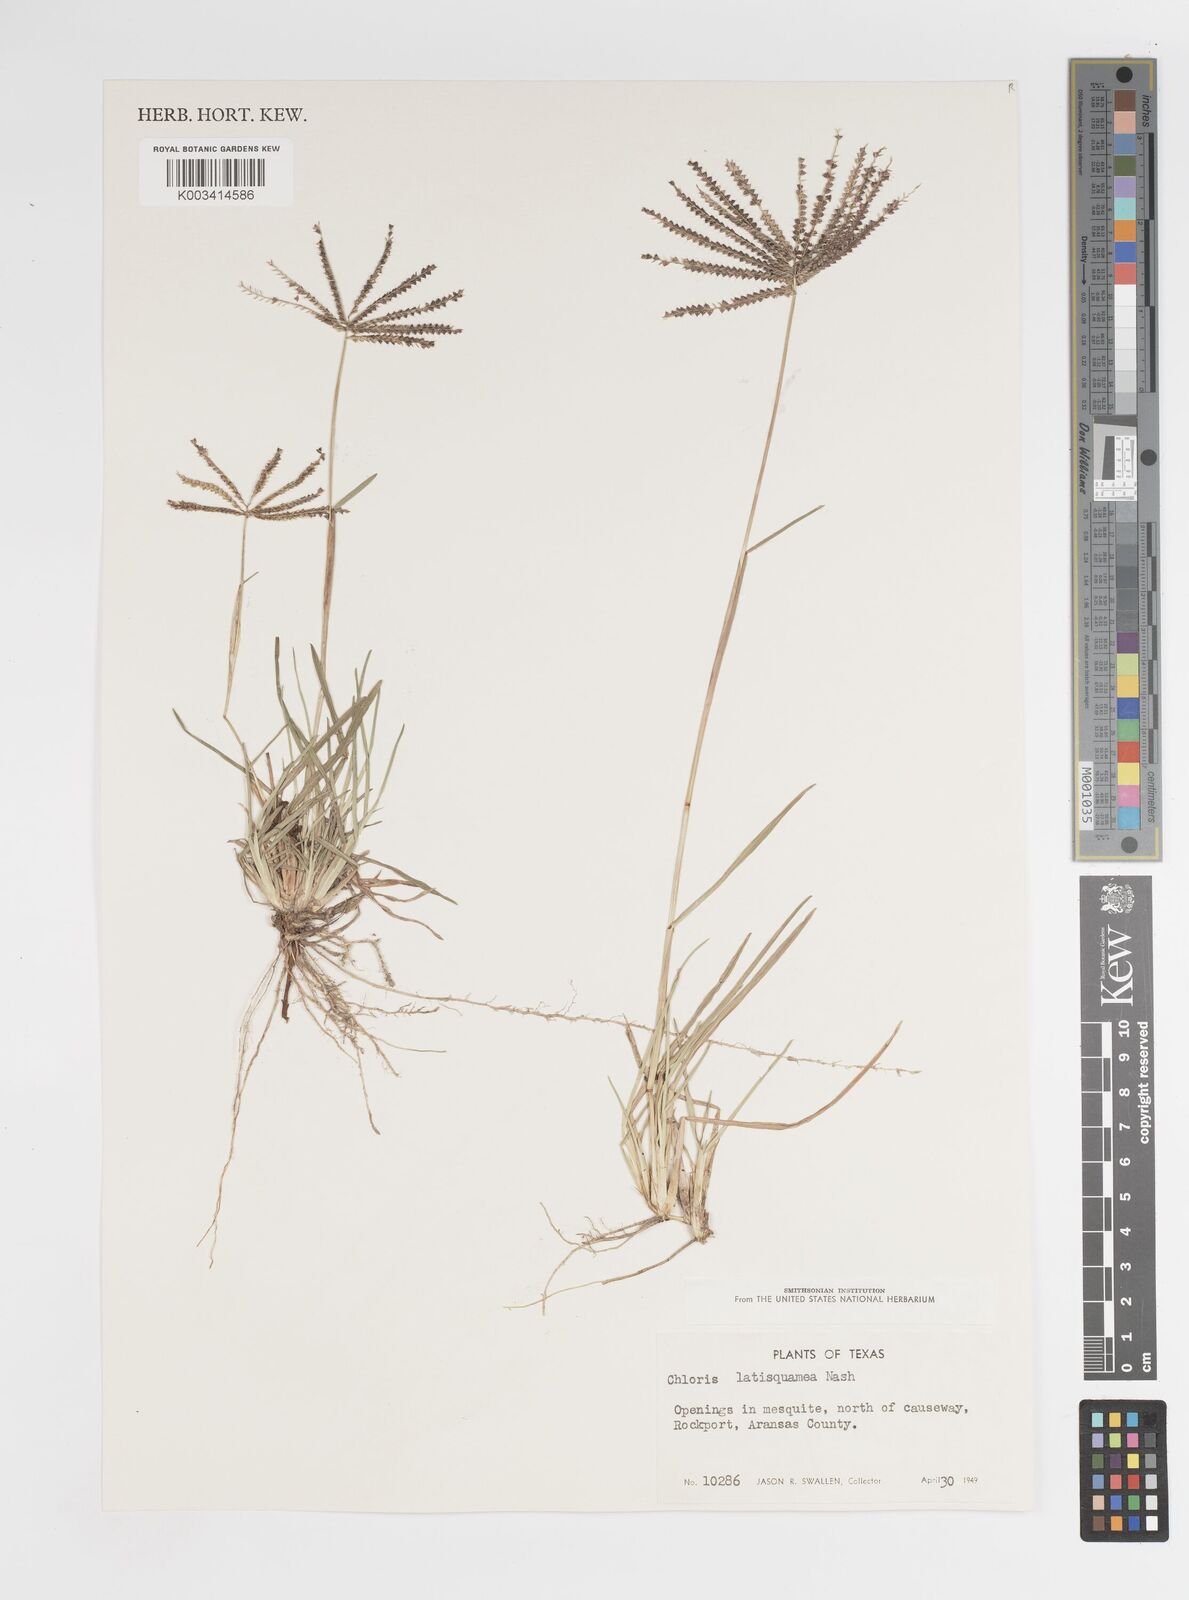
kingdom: Plantae
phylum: Tracheophyta
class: Liliopsida
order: Poales
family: Poaceae
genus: Chloris
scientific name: Chloris subdolichostachya
